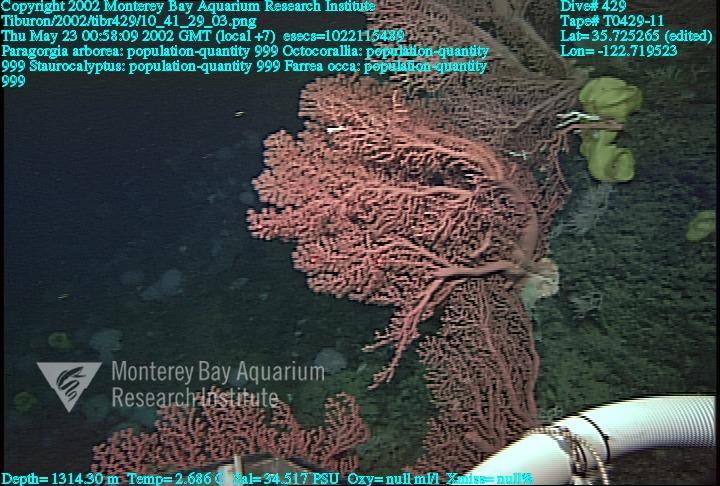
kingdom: Animalia
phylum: Porifera
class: Hexactinellida
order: Lyssacinosida
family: Rossellidae
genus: Staurocalyptus
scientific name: Staurocalyptus
